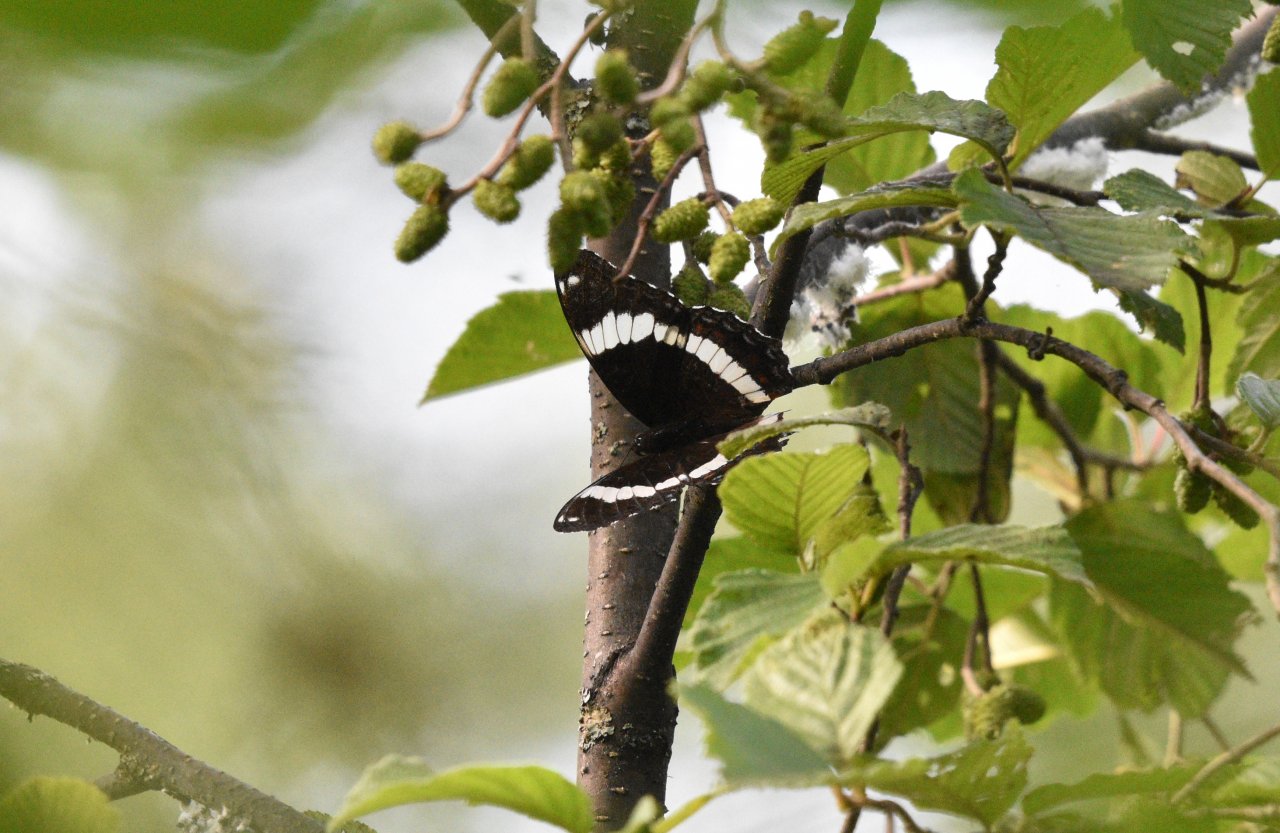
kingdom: Animalia
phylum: Arthropoda
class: Insecta
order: Lepidoptera
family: Nymphalidae
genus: Limenitis
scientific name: Limenitis arthemis
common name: Red-spotted Admiral
